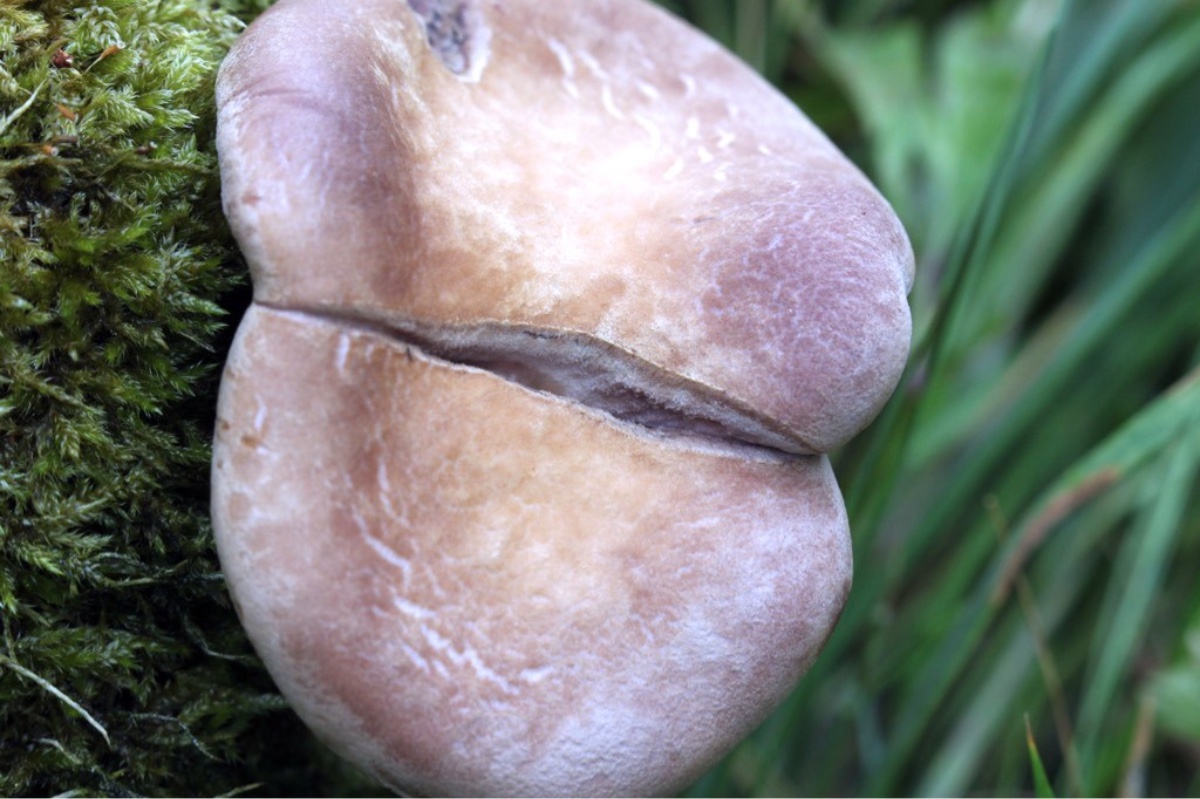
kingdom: Fungi
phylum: Basidiomycota
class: Agaricomycetes
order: Polyporales
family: Panaceae
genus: Panus
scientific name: Panus conchatus
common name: filtstokket læderhat
